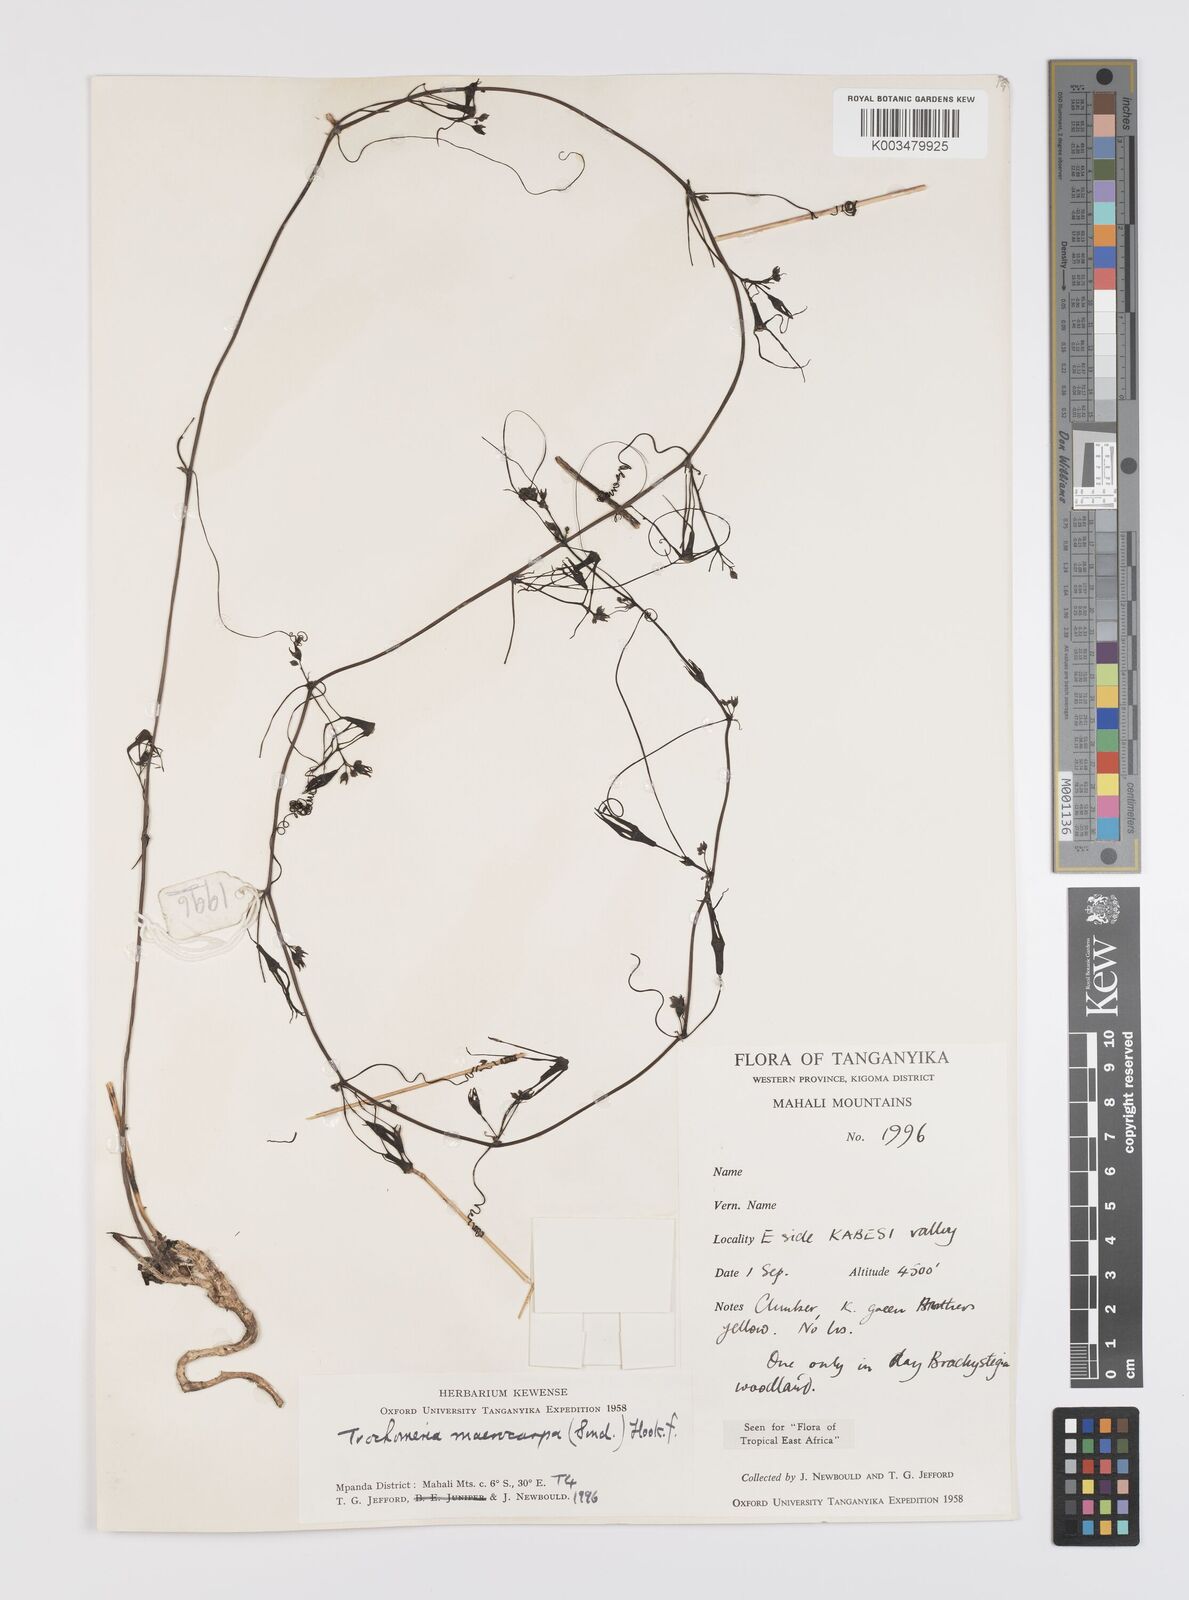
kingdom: Plantae
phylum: Tracheophyta
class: Magnoliopsida
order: Cucurbitales
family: Cucurbitaceae
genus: Trochomeria
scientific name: Trochomeria macrocarpa
